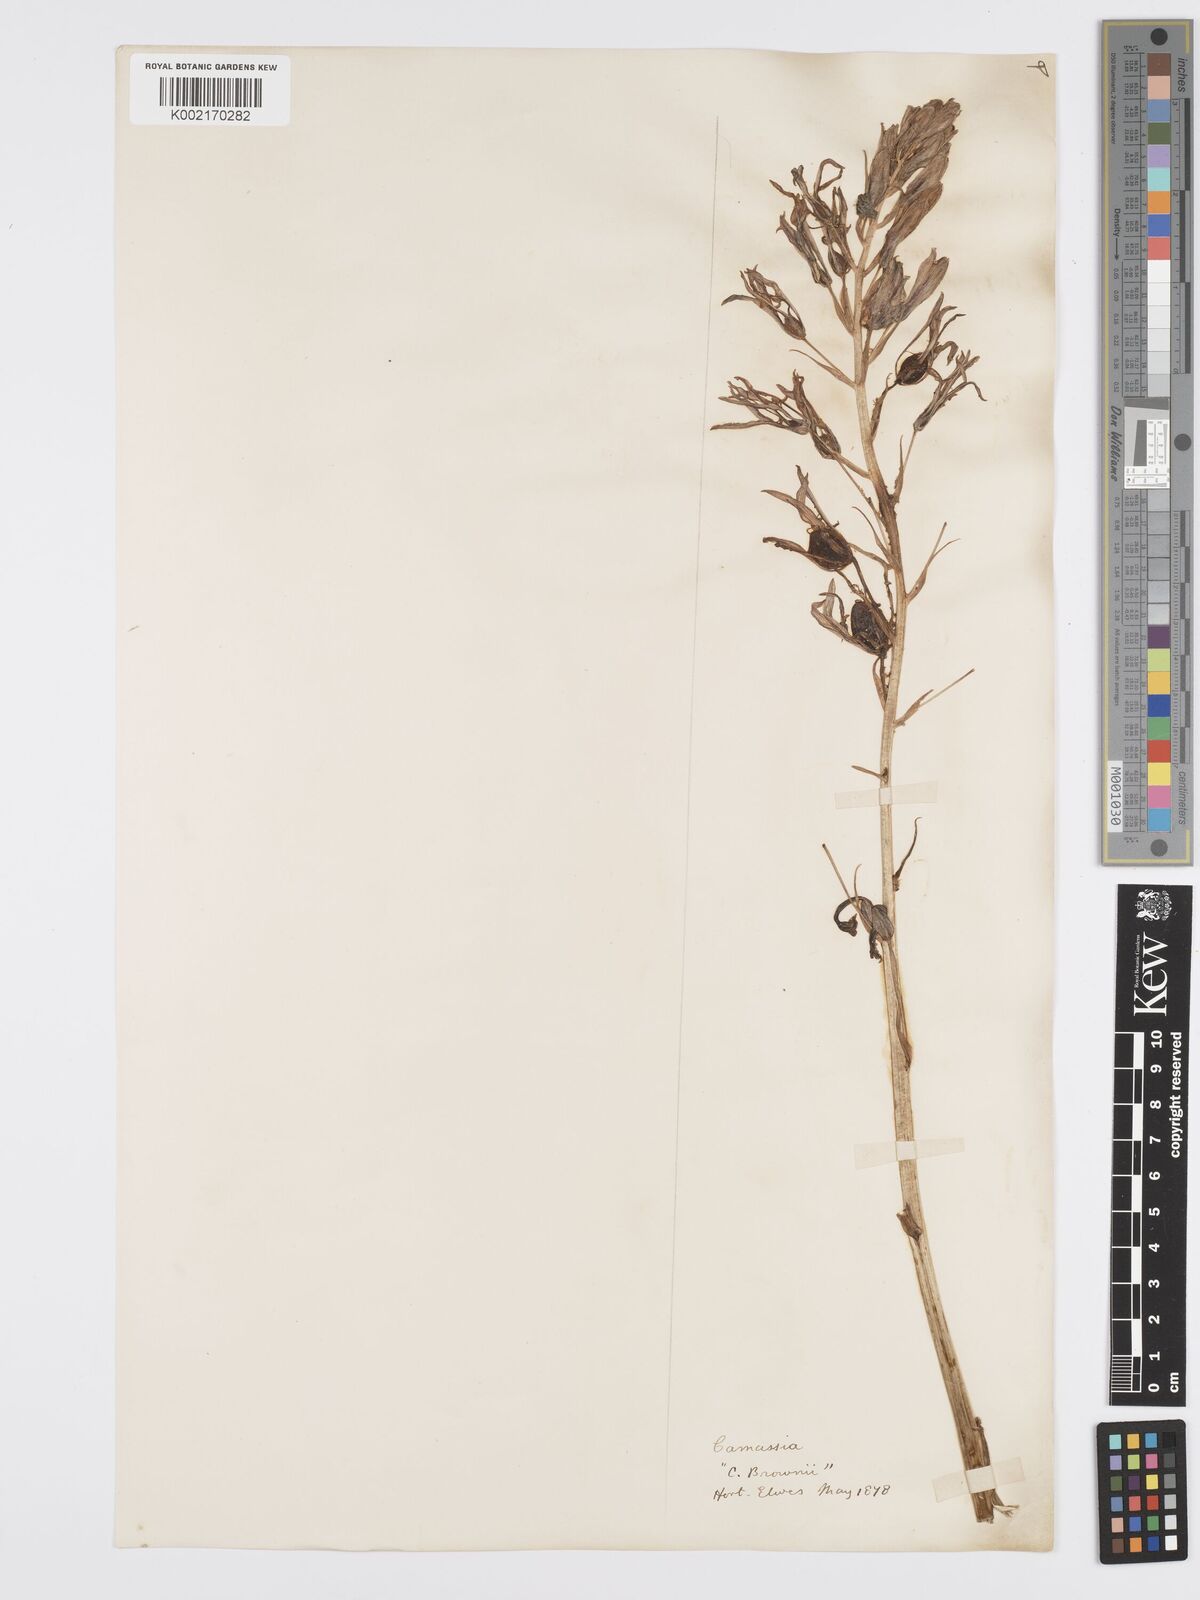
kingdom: Plantae
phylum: Tracheophyta
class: Liliopsida
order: Asparagales
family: Asparagaceae
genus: Camassia
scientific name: Camassia leichtlinii
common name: Leichtlin's camas
